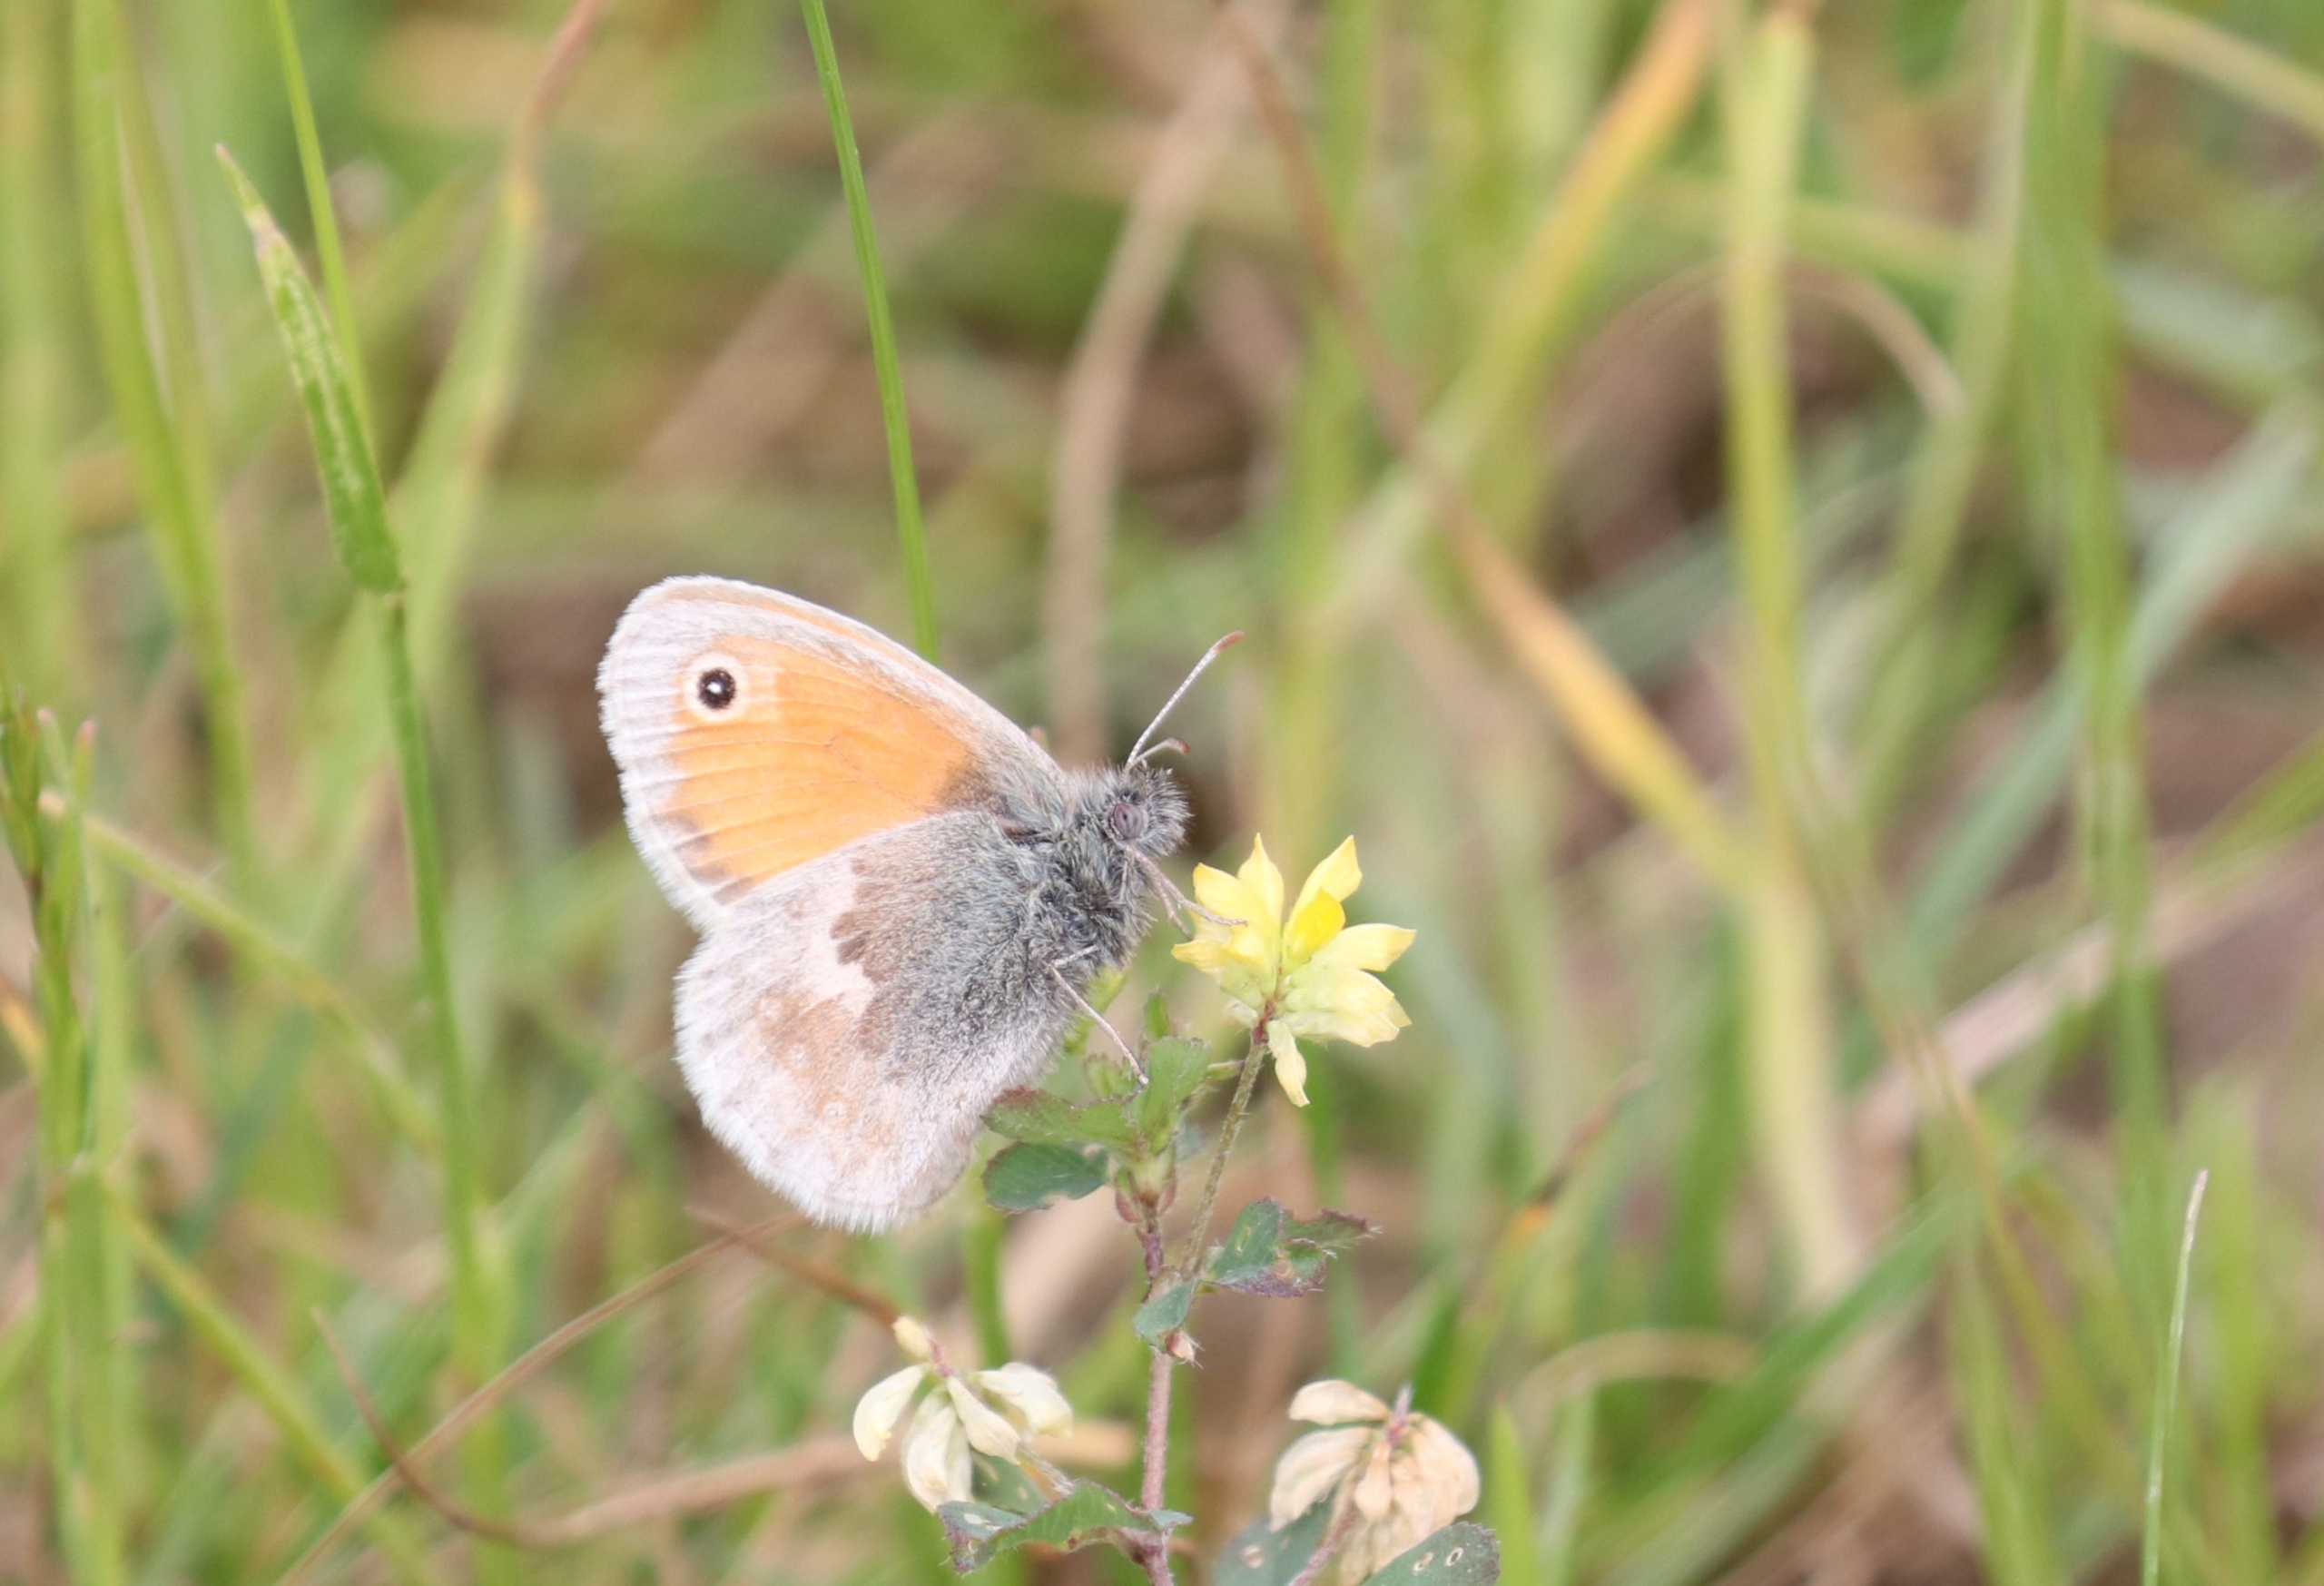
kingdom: Animalia
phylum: Arthropoda
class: Insecta
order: Lepidoptera
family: Nymphalidae
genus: Coenonympha
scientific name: Coenonympha pamphilus
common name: Okkergul randøje
